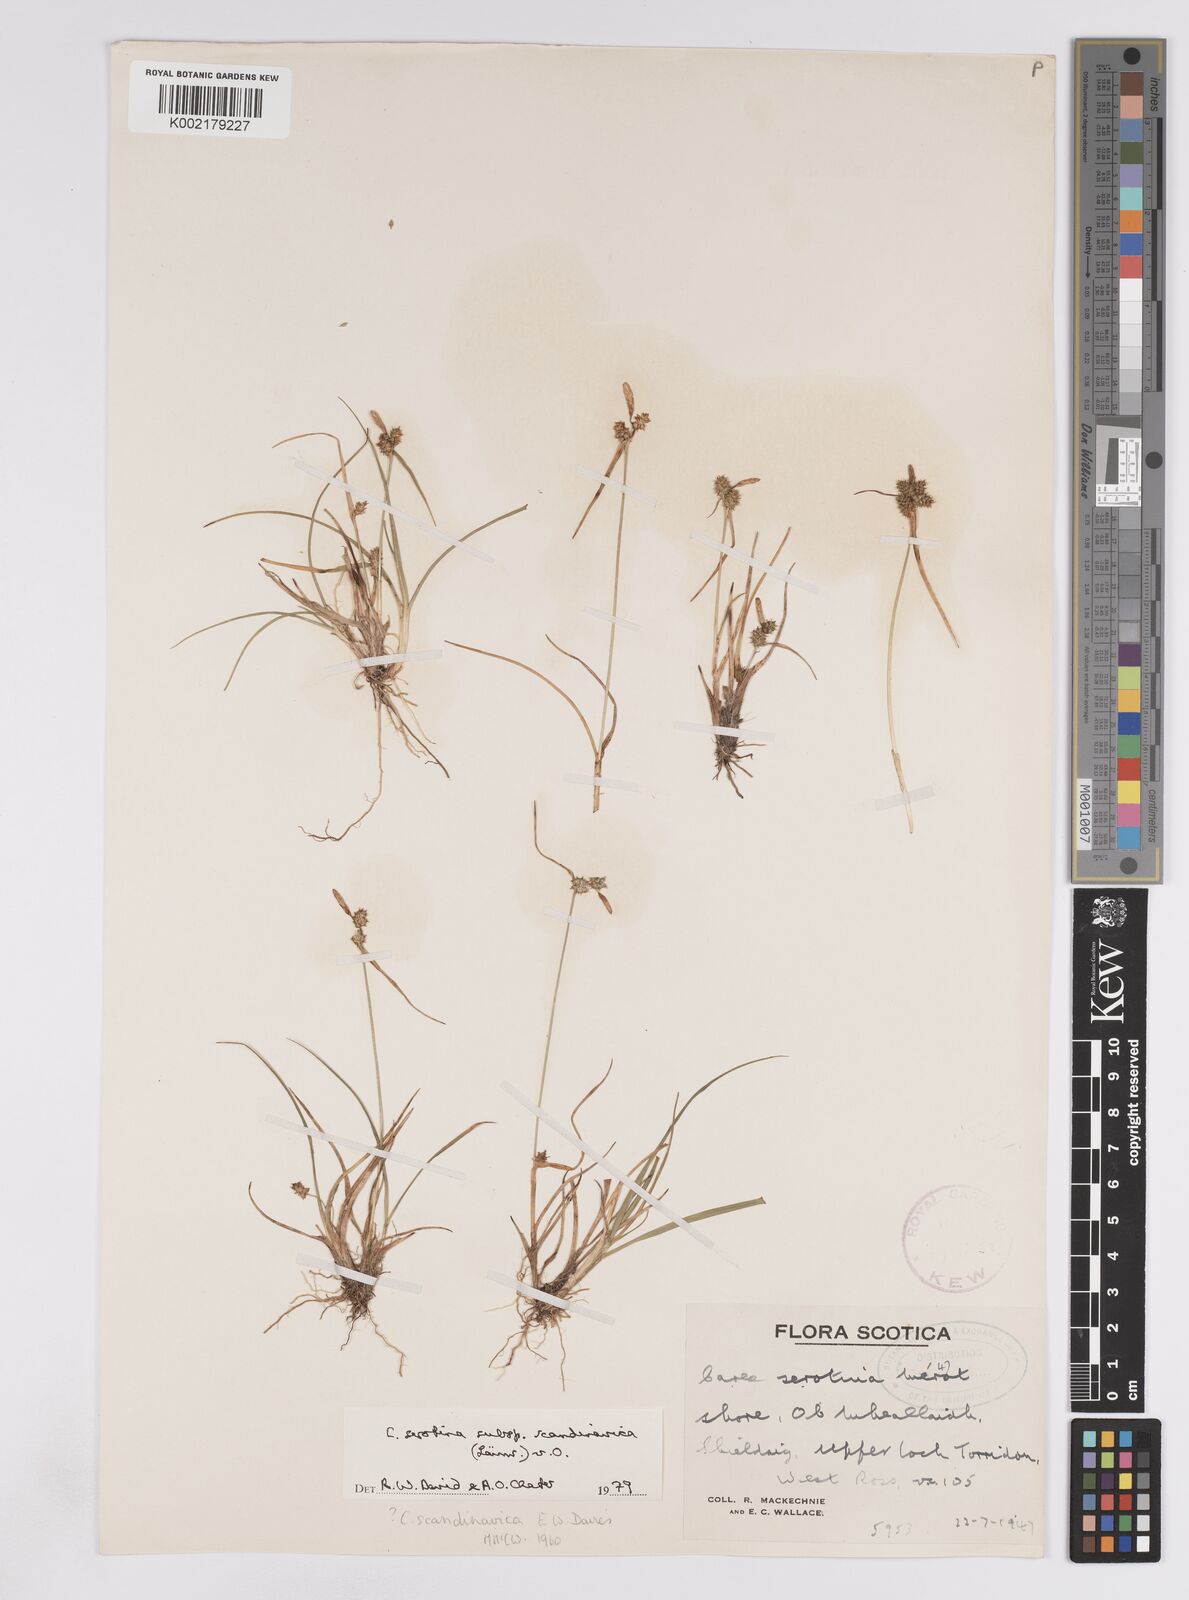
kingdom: Plantae
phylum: Tracheophyta
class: Liliopsida
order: Poales
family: Cyperaceae
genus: Carex
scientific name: Carex oederi
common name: Common & small-fruited yellow-sedge
